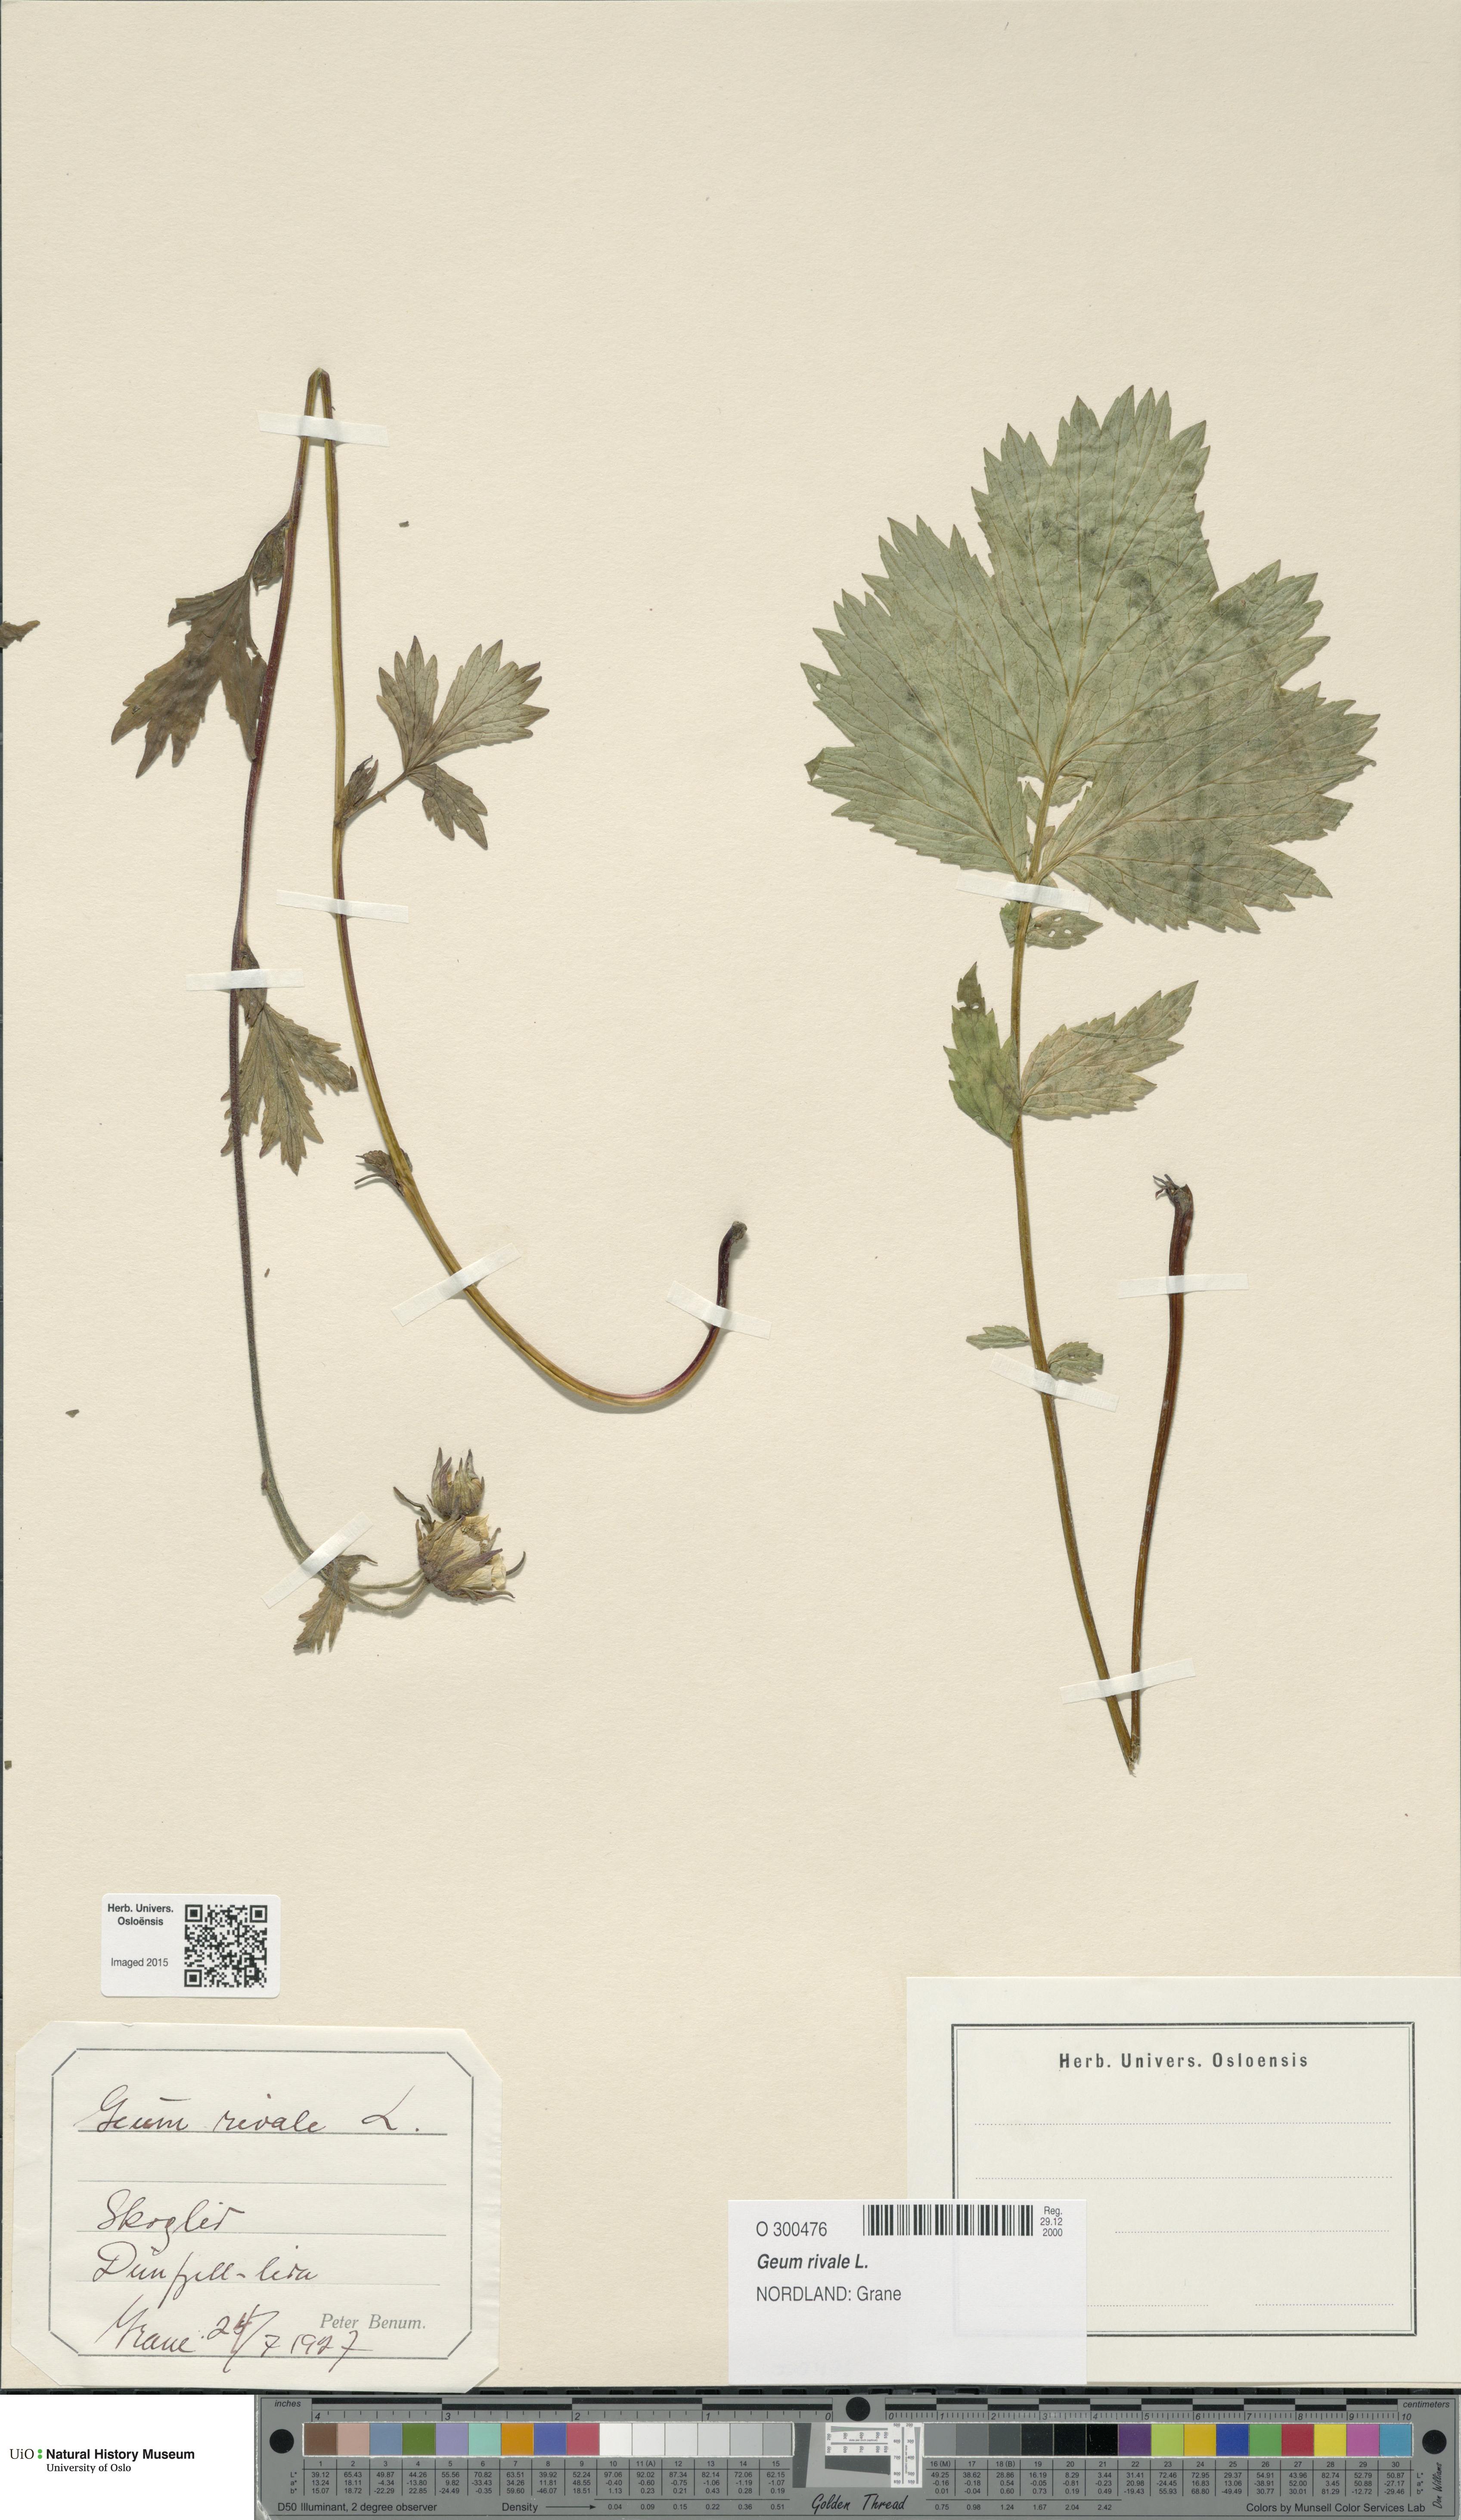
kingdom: Plantae
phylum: Tracheophyta
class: Magnoliopsida
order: Rosales
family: Rosaceae
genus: Geum
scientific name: Geum rivale
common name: Water avens
